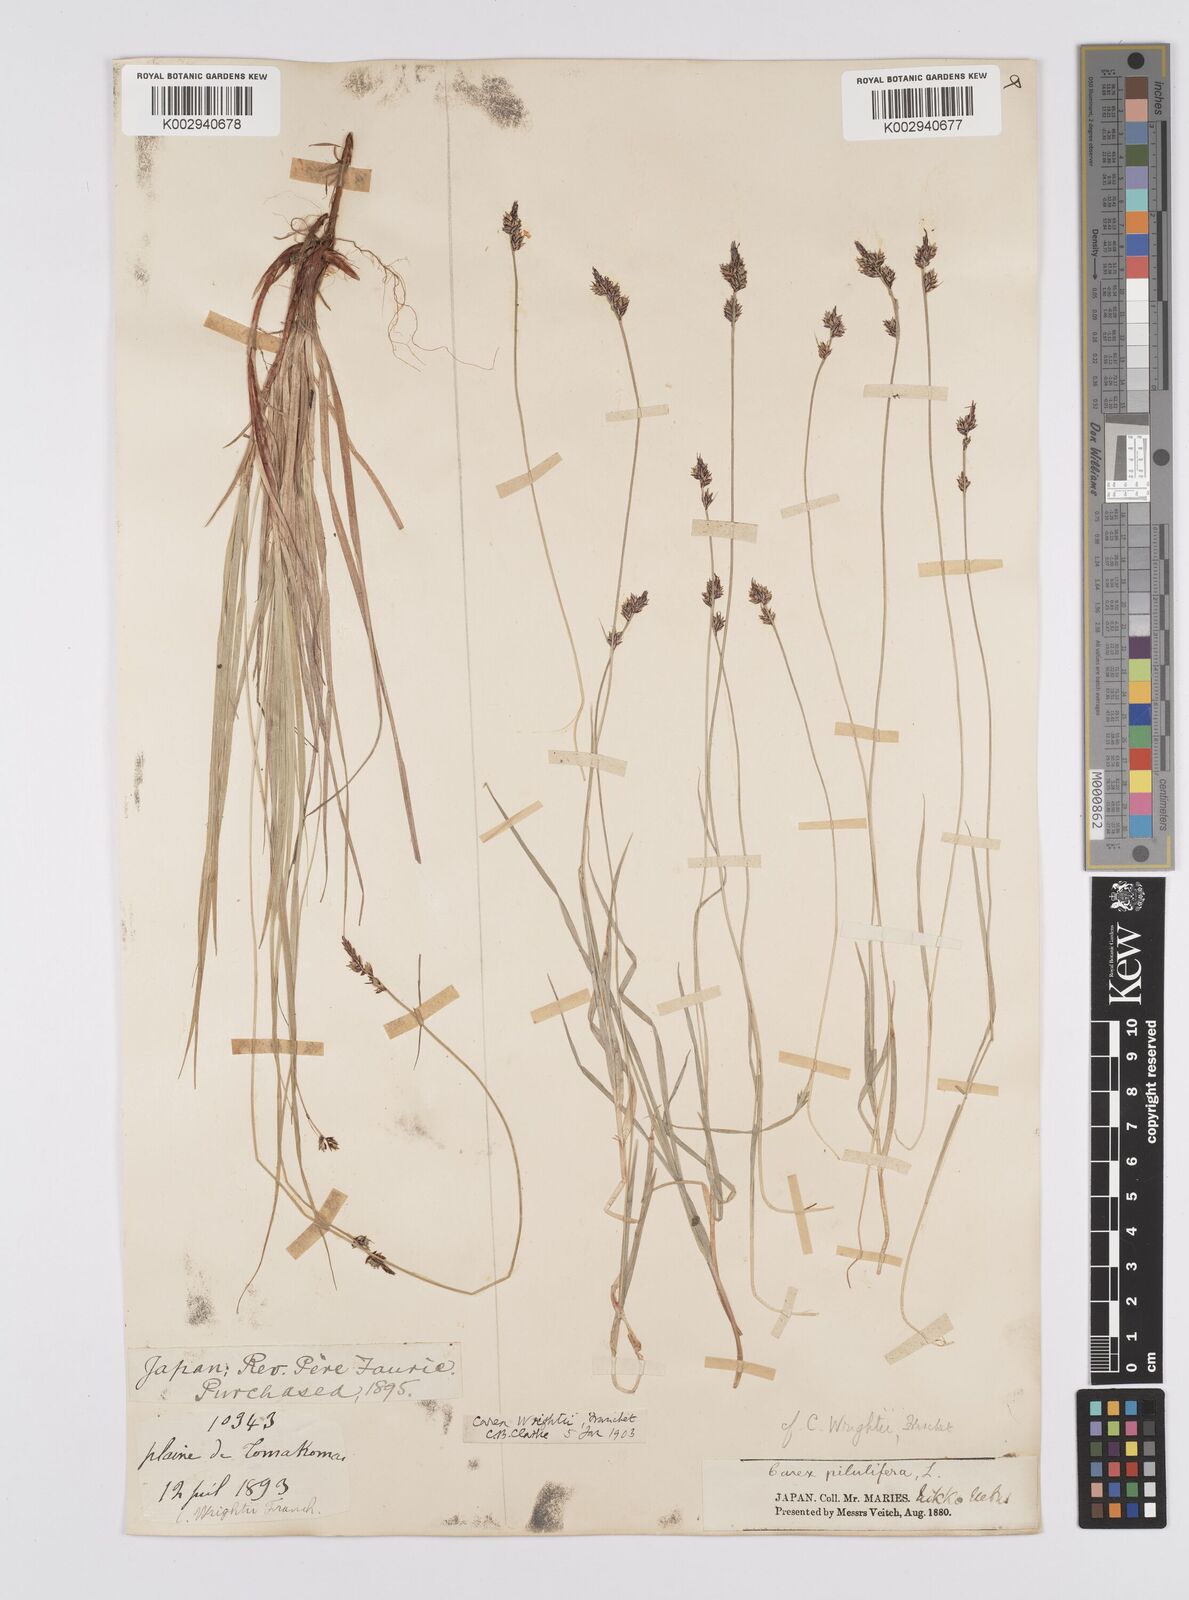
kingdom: Plantae
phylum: Tracheophyta
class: Liliopsida
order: Poales
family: Cyperaceae
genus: Carex
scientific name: Carex oxyandra
